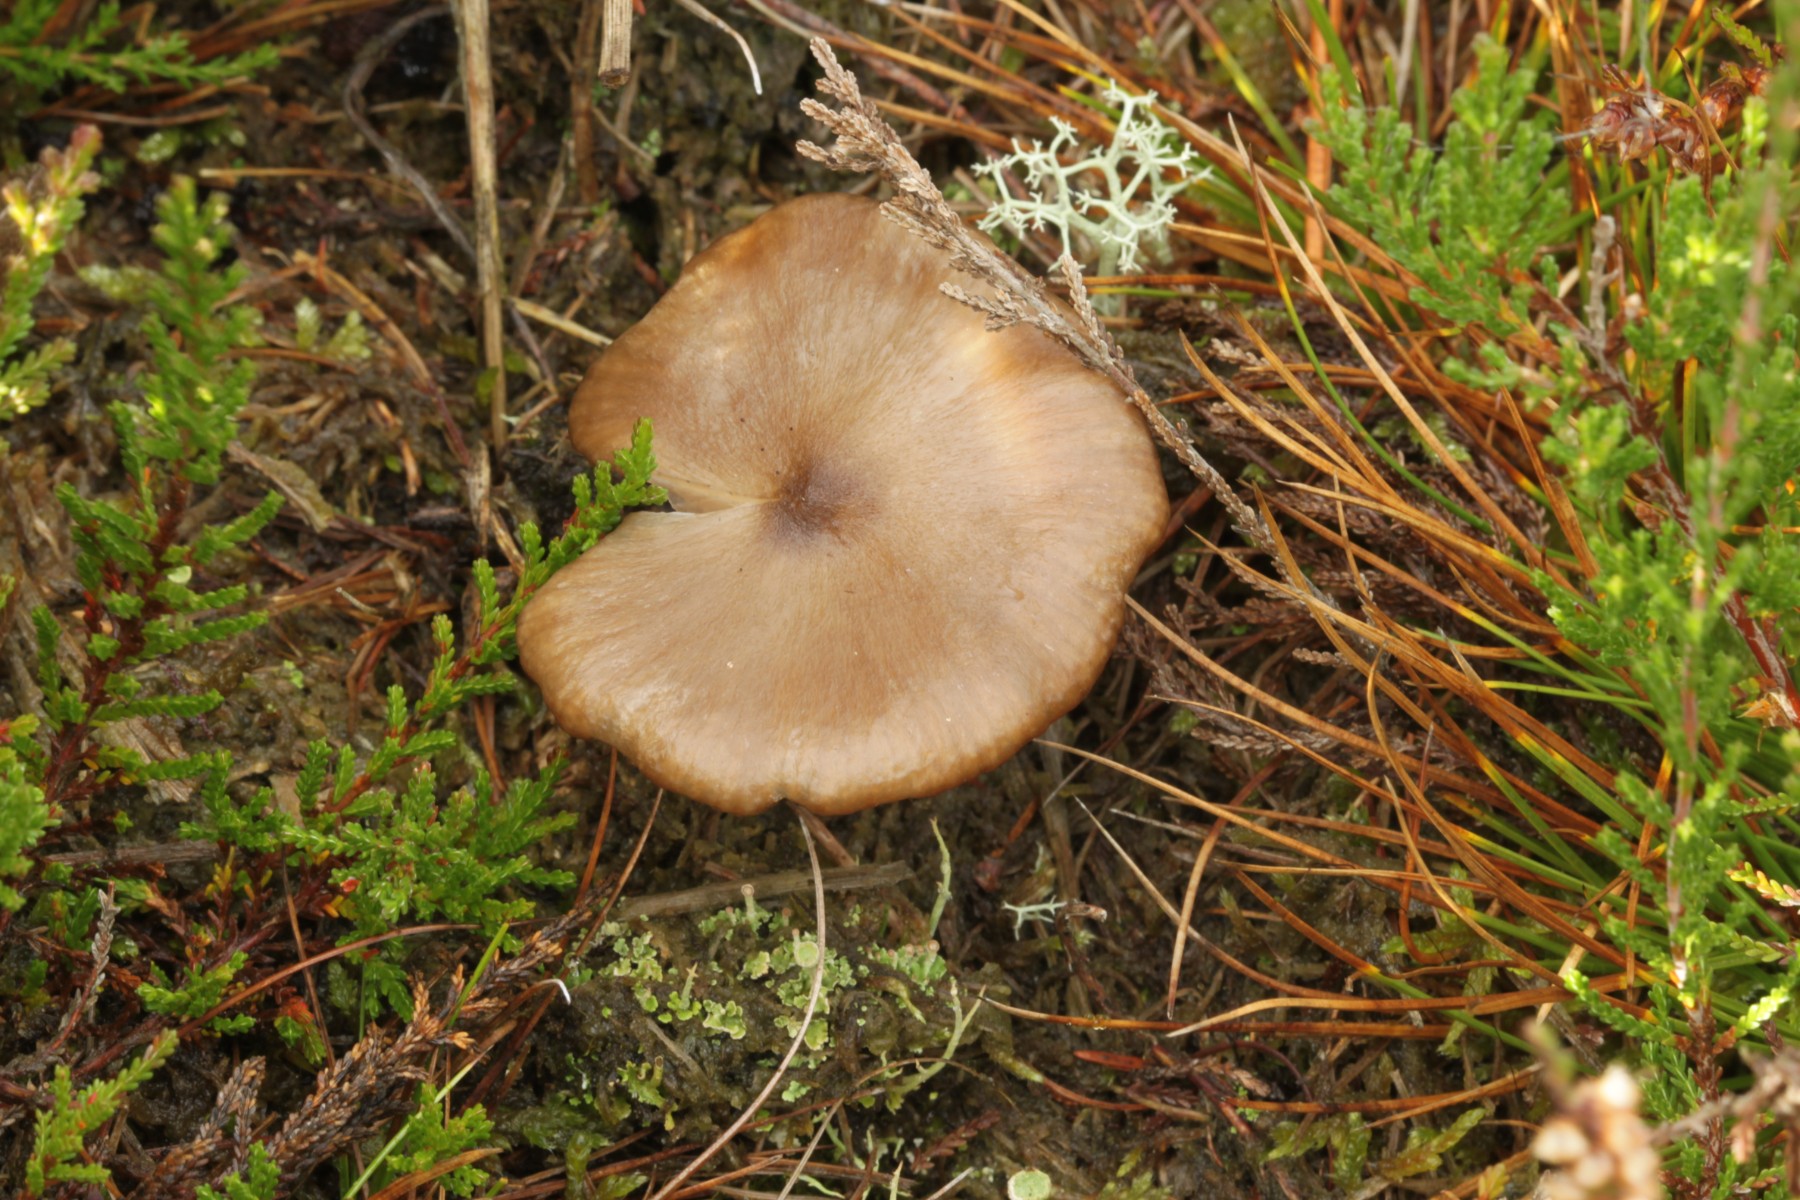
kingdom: Fungi
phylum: Basidiomycota
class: Agaricomycetes
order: Agaricales
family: Entolomataceae
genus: Entoloma
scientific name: Entoloma sericeum
